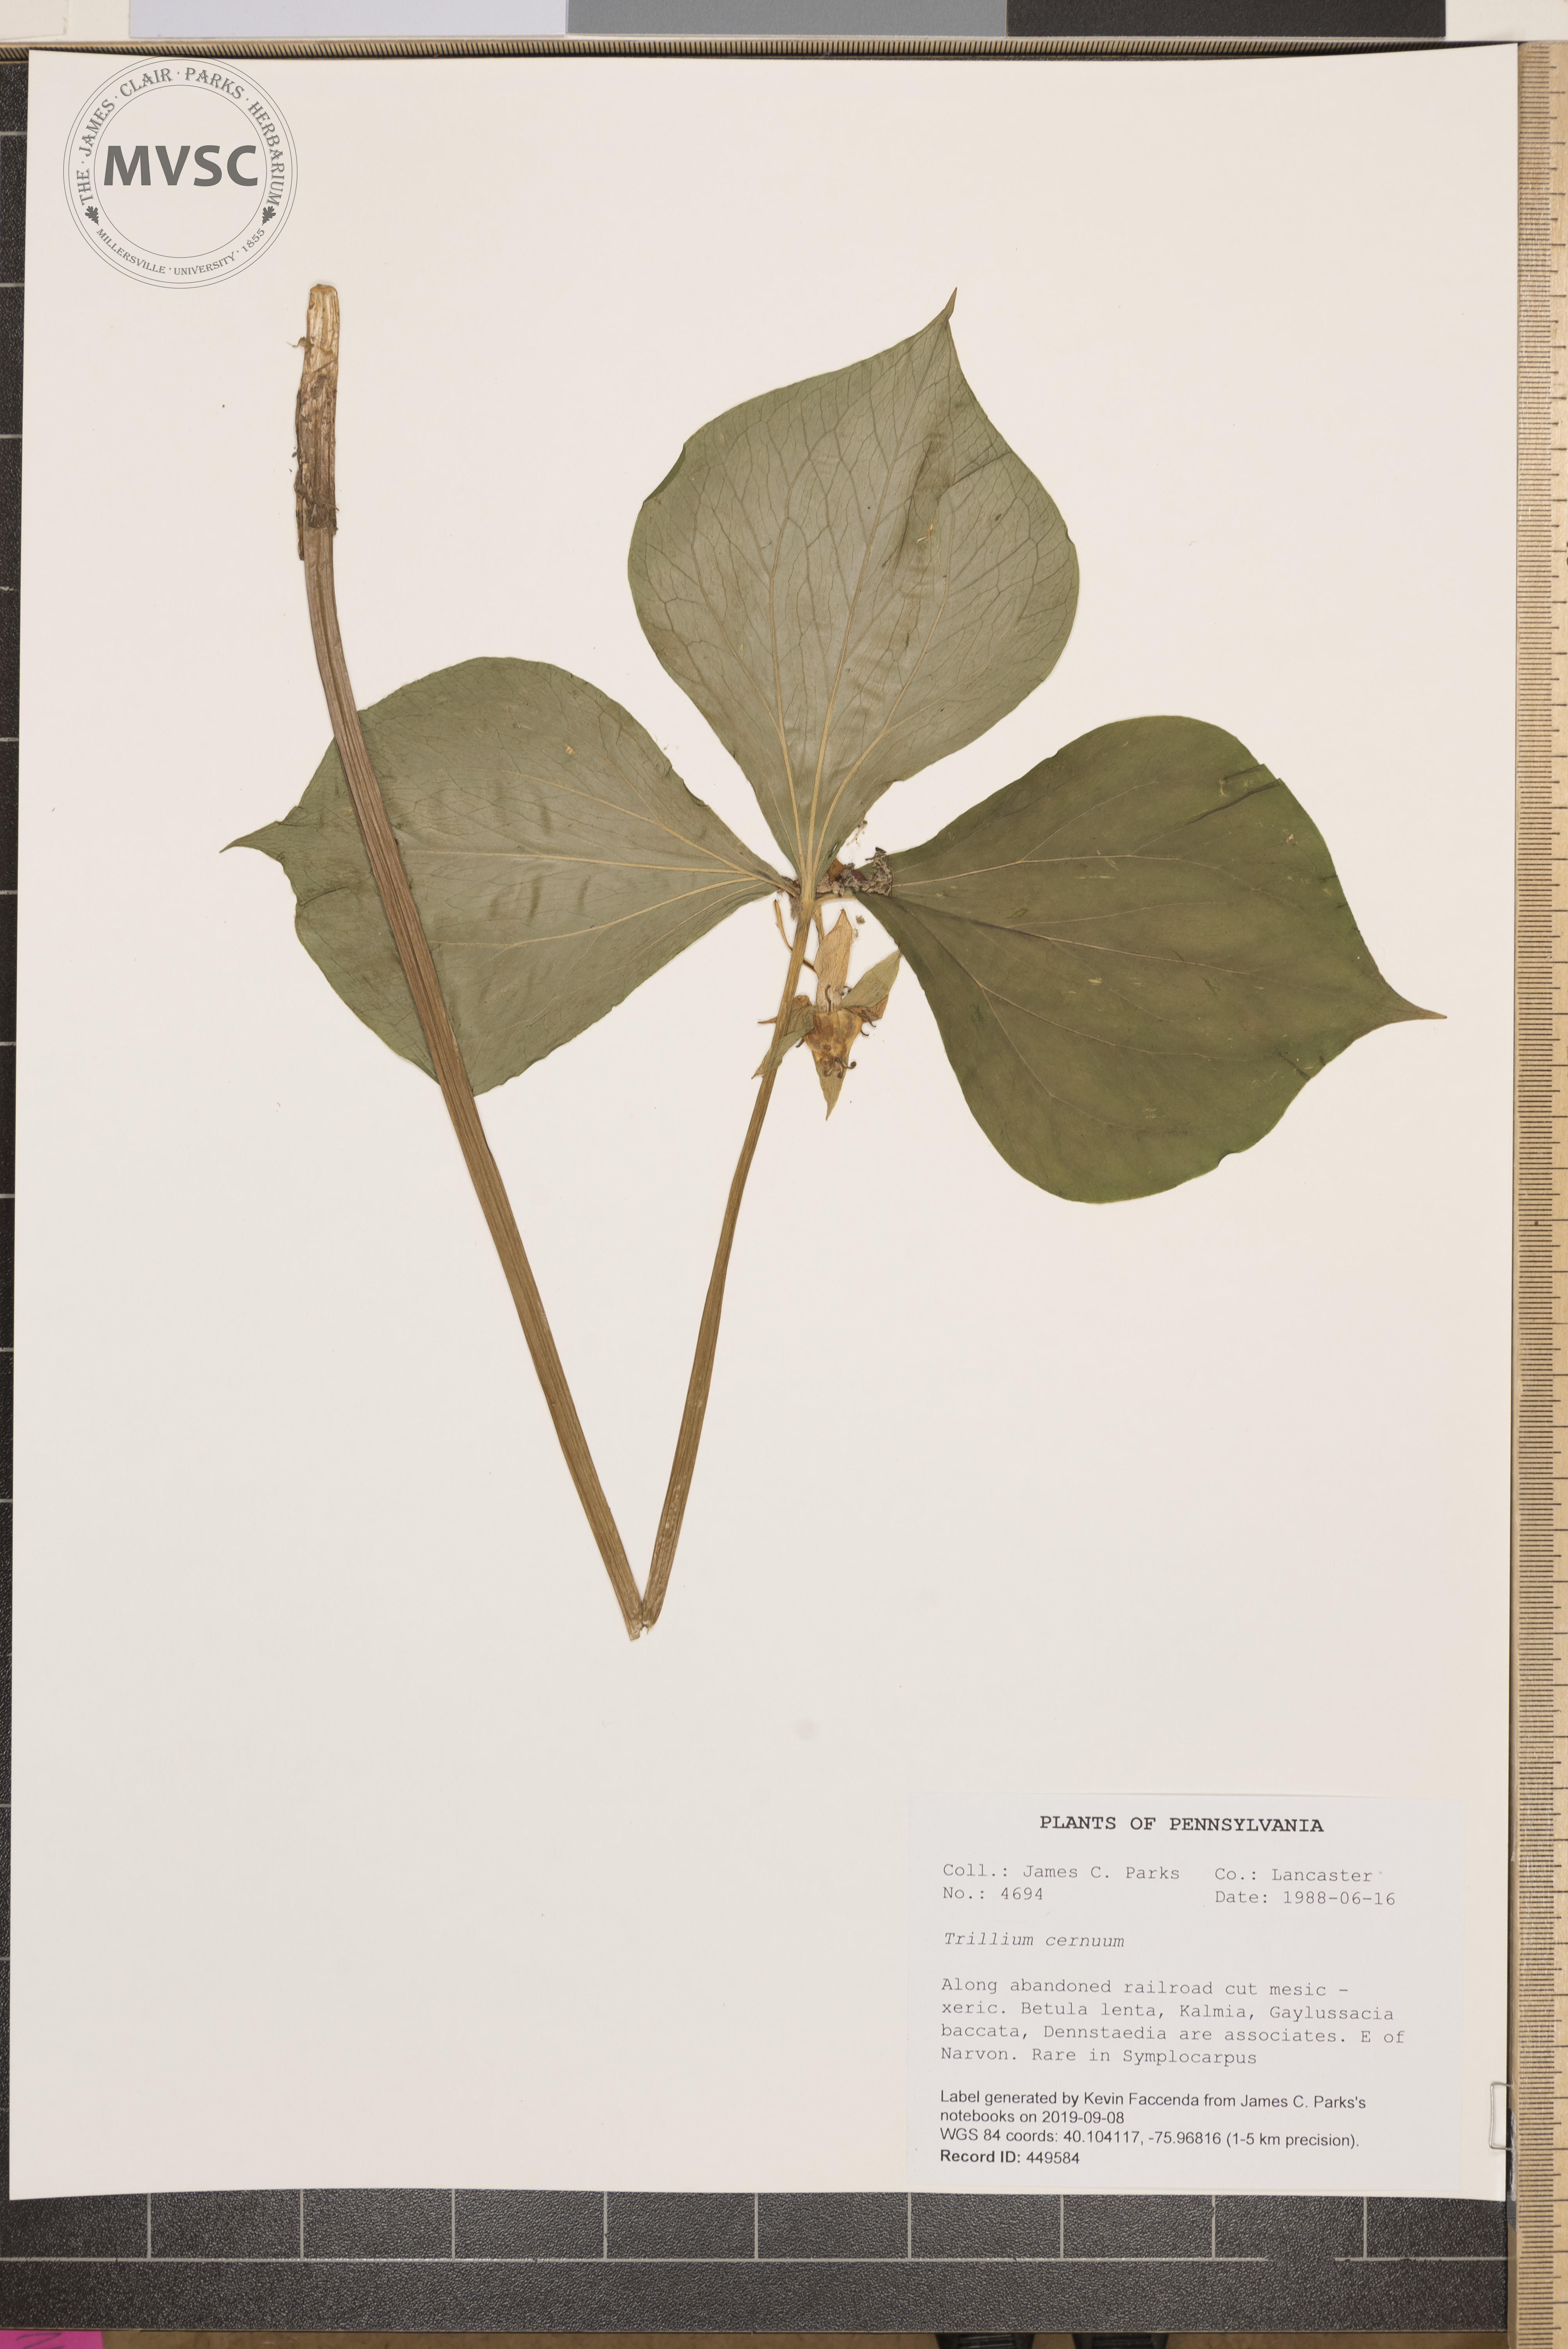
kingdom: Plantae
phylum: Tracheophyta
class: Liliopsida
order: Liliales
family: Melanthiaceae
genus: Trillium
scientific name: Trillium cernuum
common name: Nodding trillium
